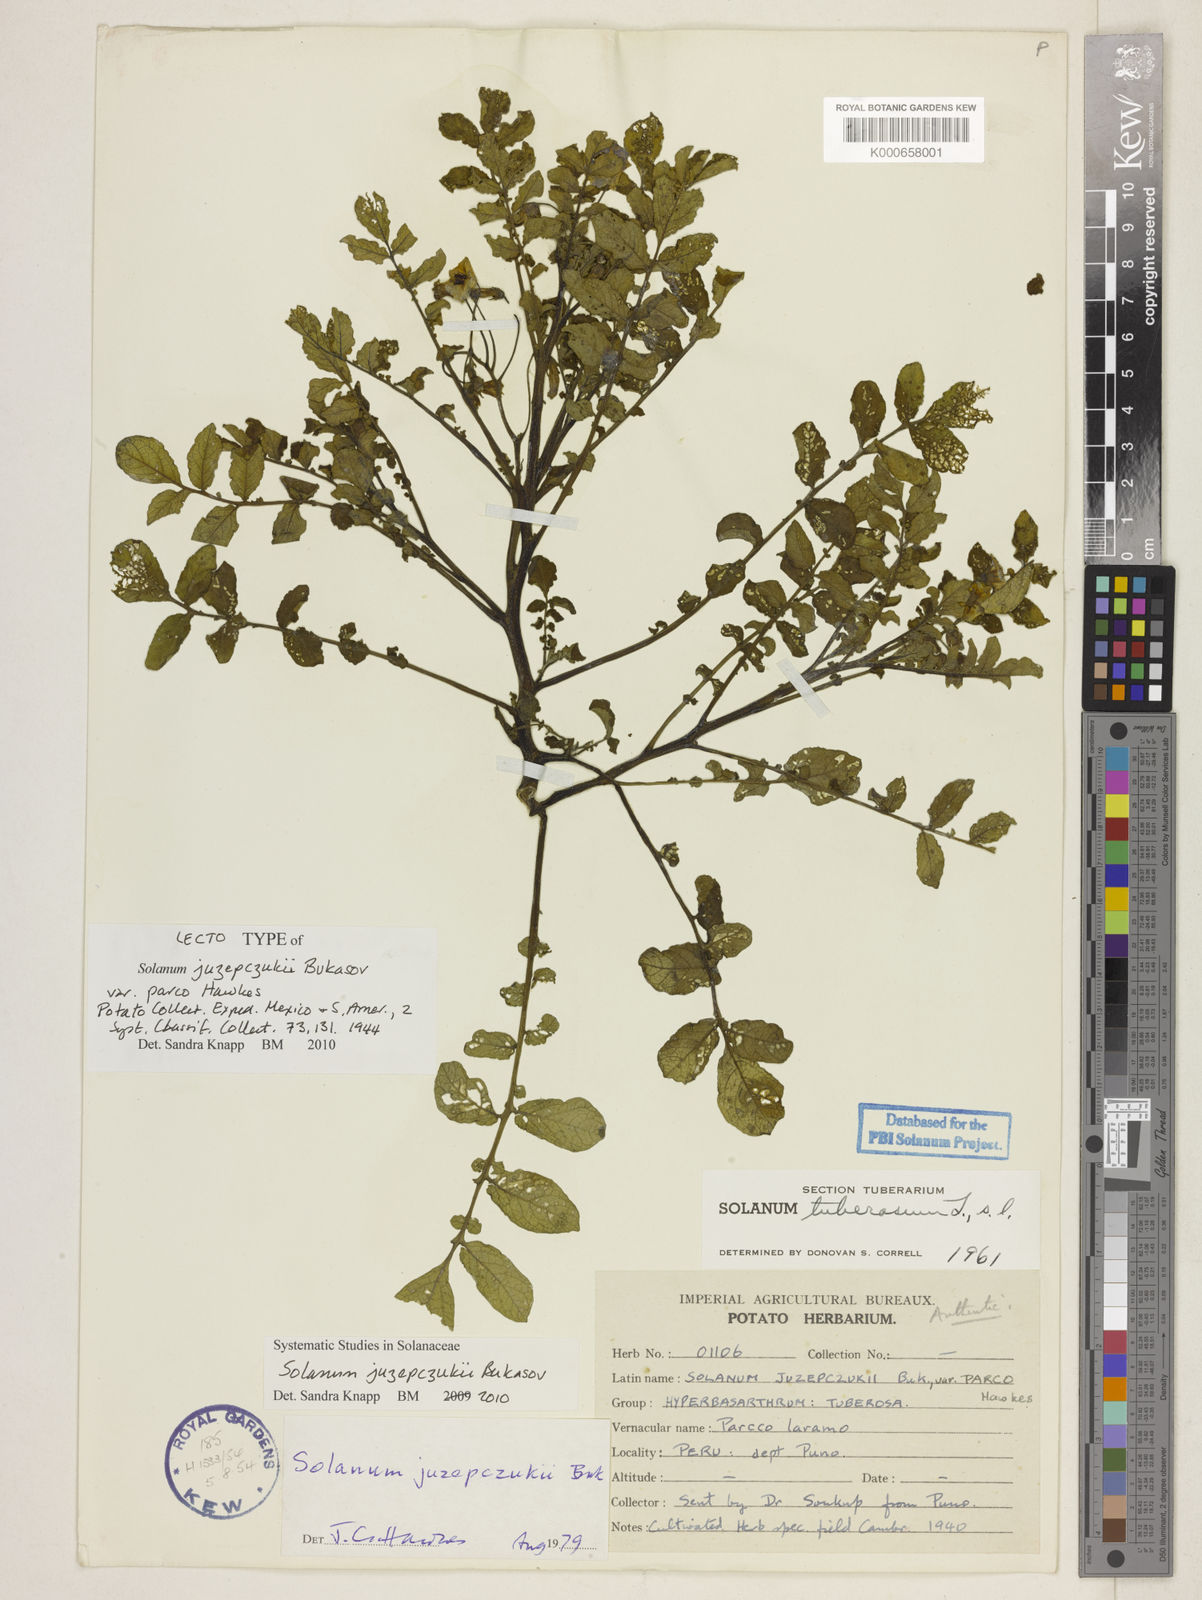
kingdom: Plantae
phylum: Tracheophyta
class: Magnoliopsida
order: Solanales
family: Solanaceae
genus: Solanum
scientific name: Solanum juzepczukii
